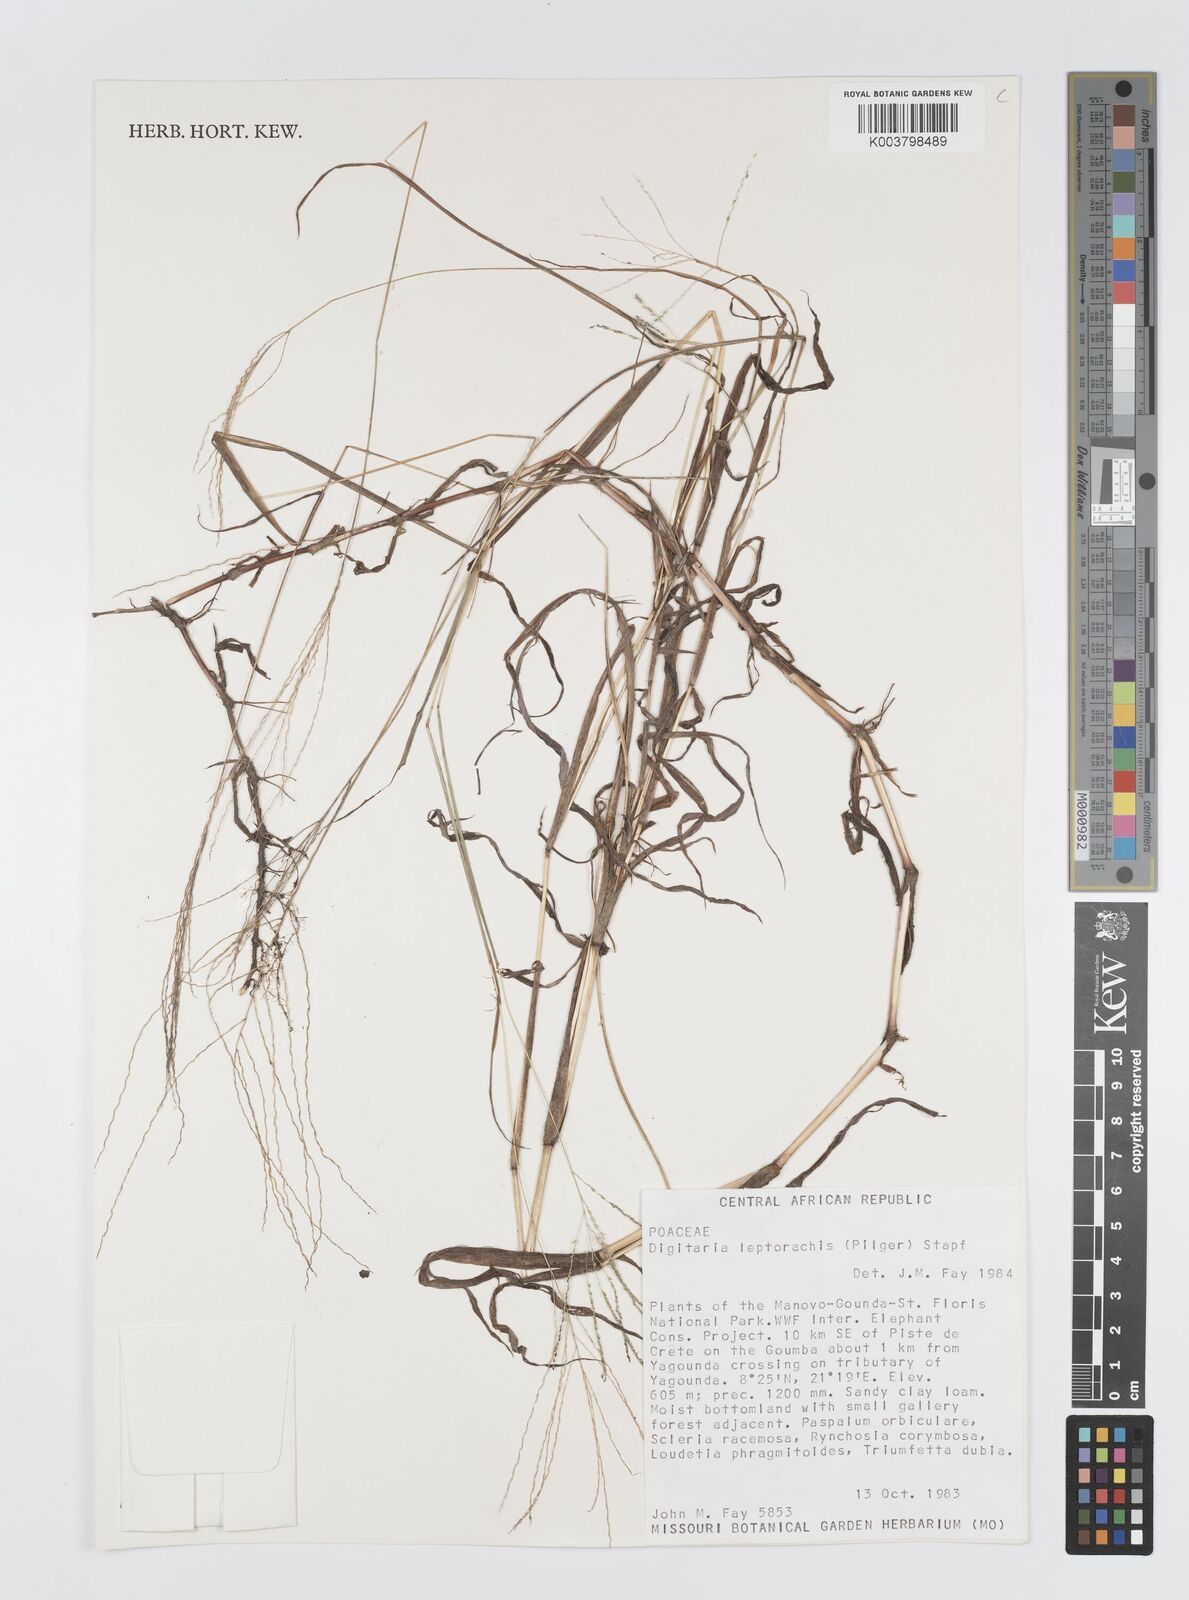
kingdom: Plantae
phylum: Tracheophyta
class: Liliopsida
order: Poales
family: Poaceae
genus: Digitaria
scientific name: Digitaria leptorhachis
